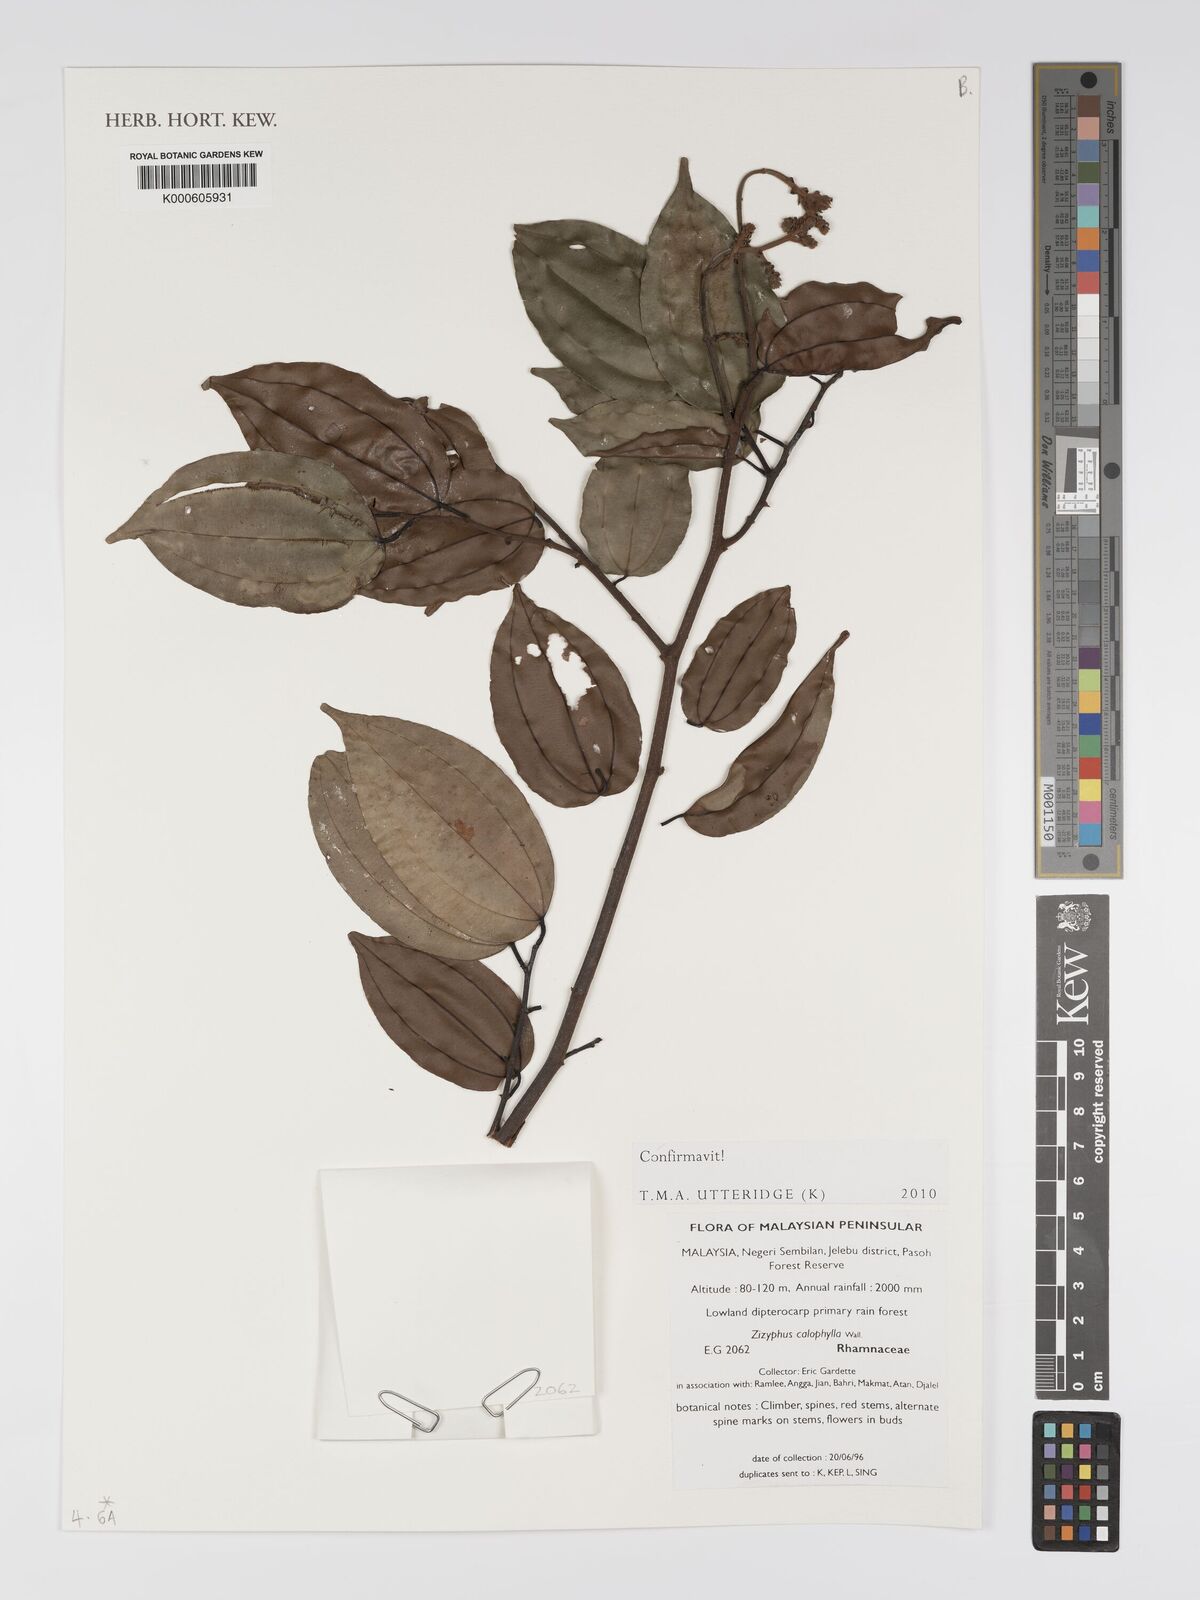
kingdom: Plantae
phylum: Tracheophyta
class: Magnoliopsida
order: Rosales
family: Rhamnaceae
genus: Ziziphus
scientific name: Ziziphus calophylla
